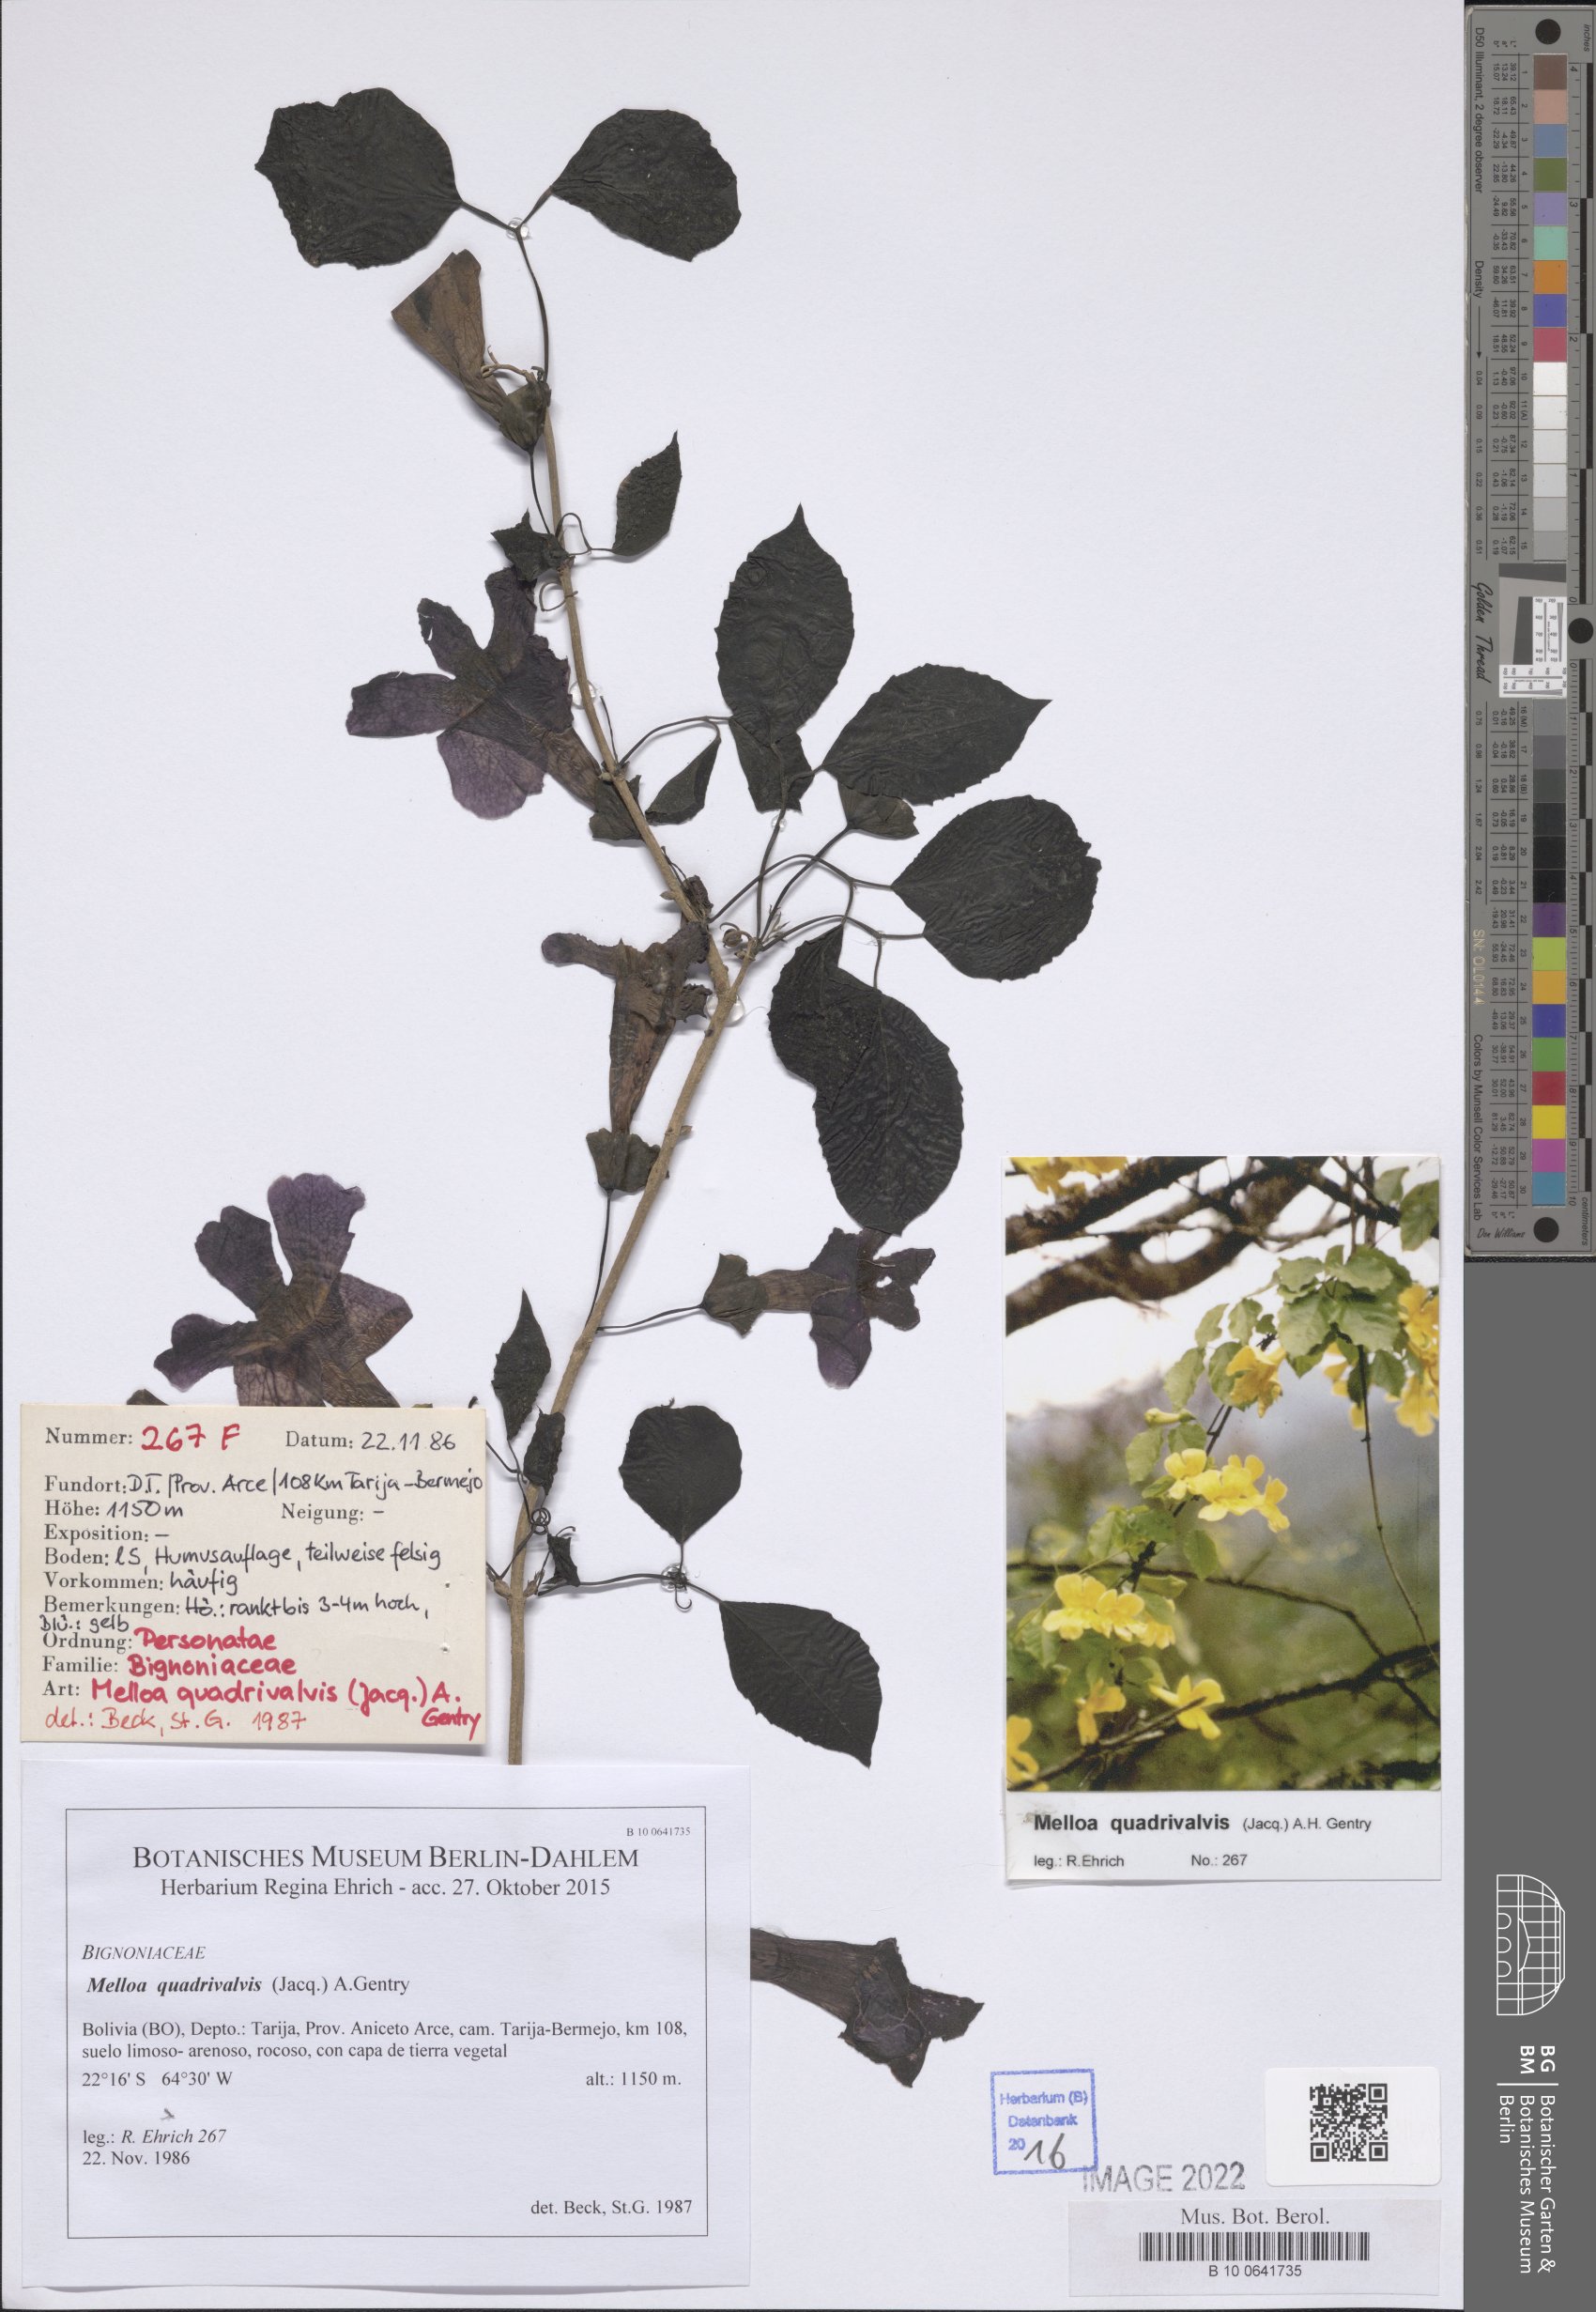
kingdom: Plantae
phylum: Tracheophyta
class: Magnoliopsida
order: Lamiales
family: Bignoniaceae
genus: Dolichandra
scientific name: Dolichandra quadrivalvis
